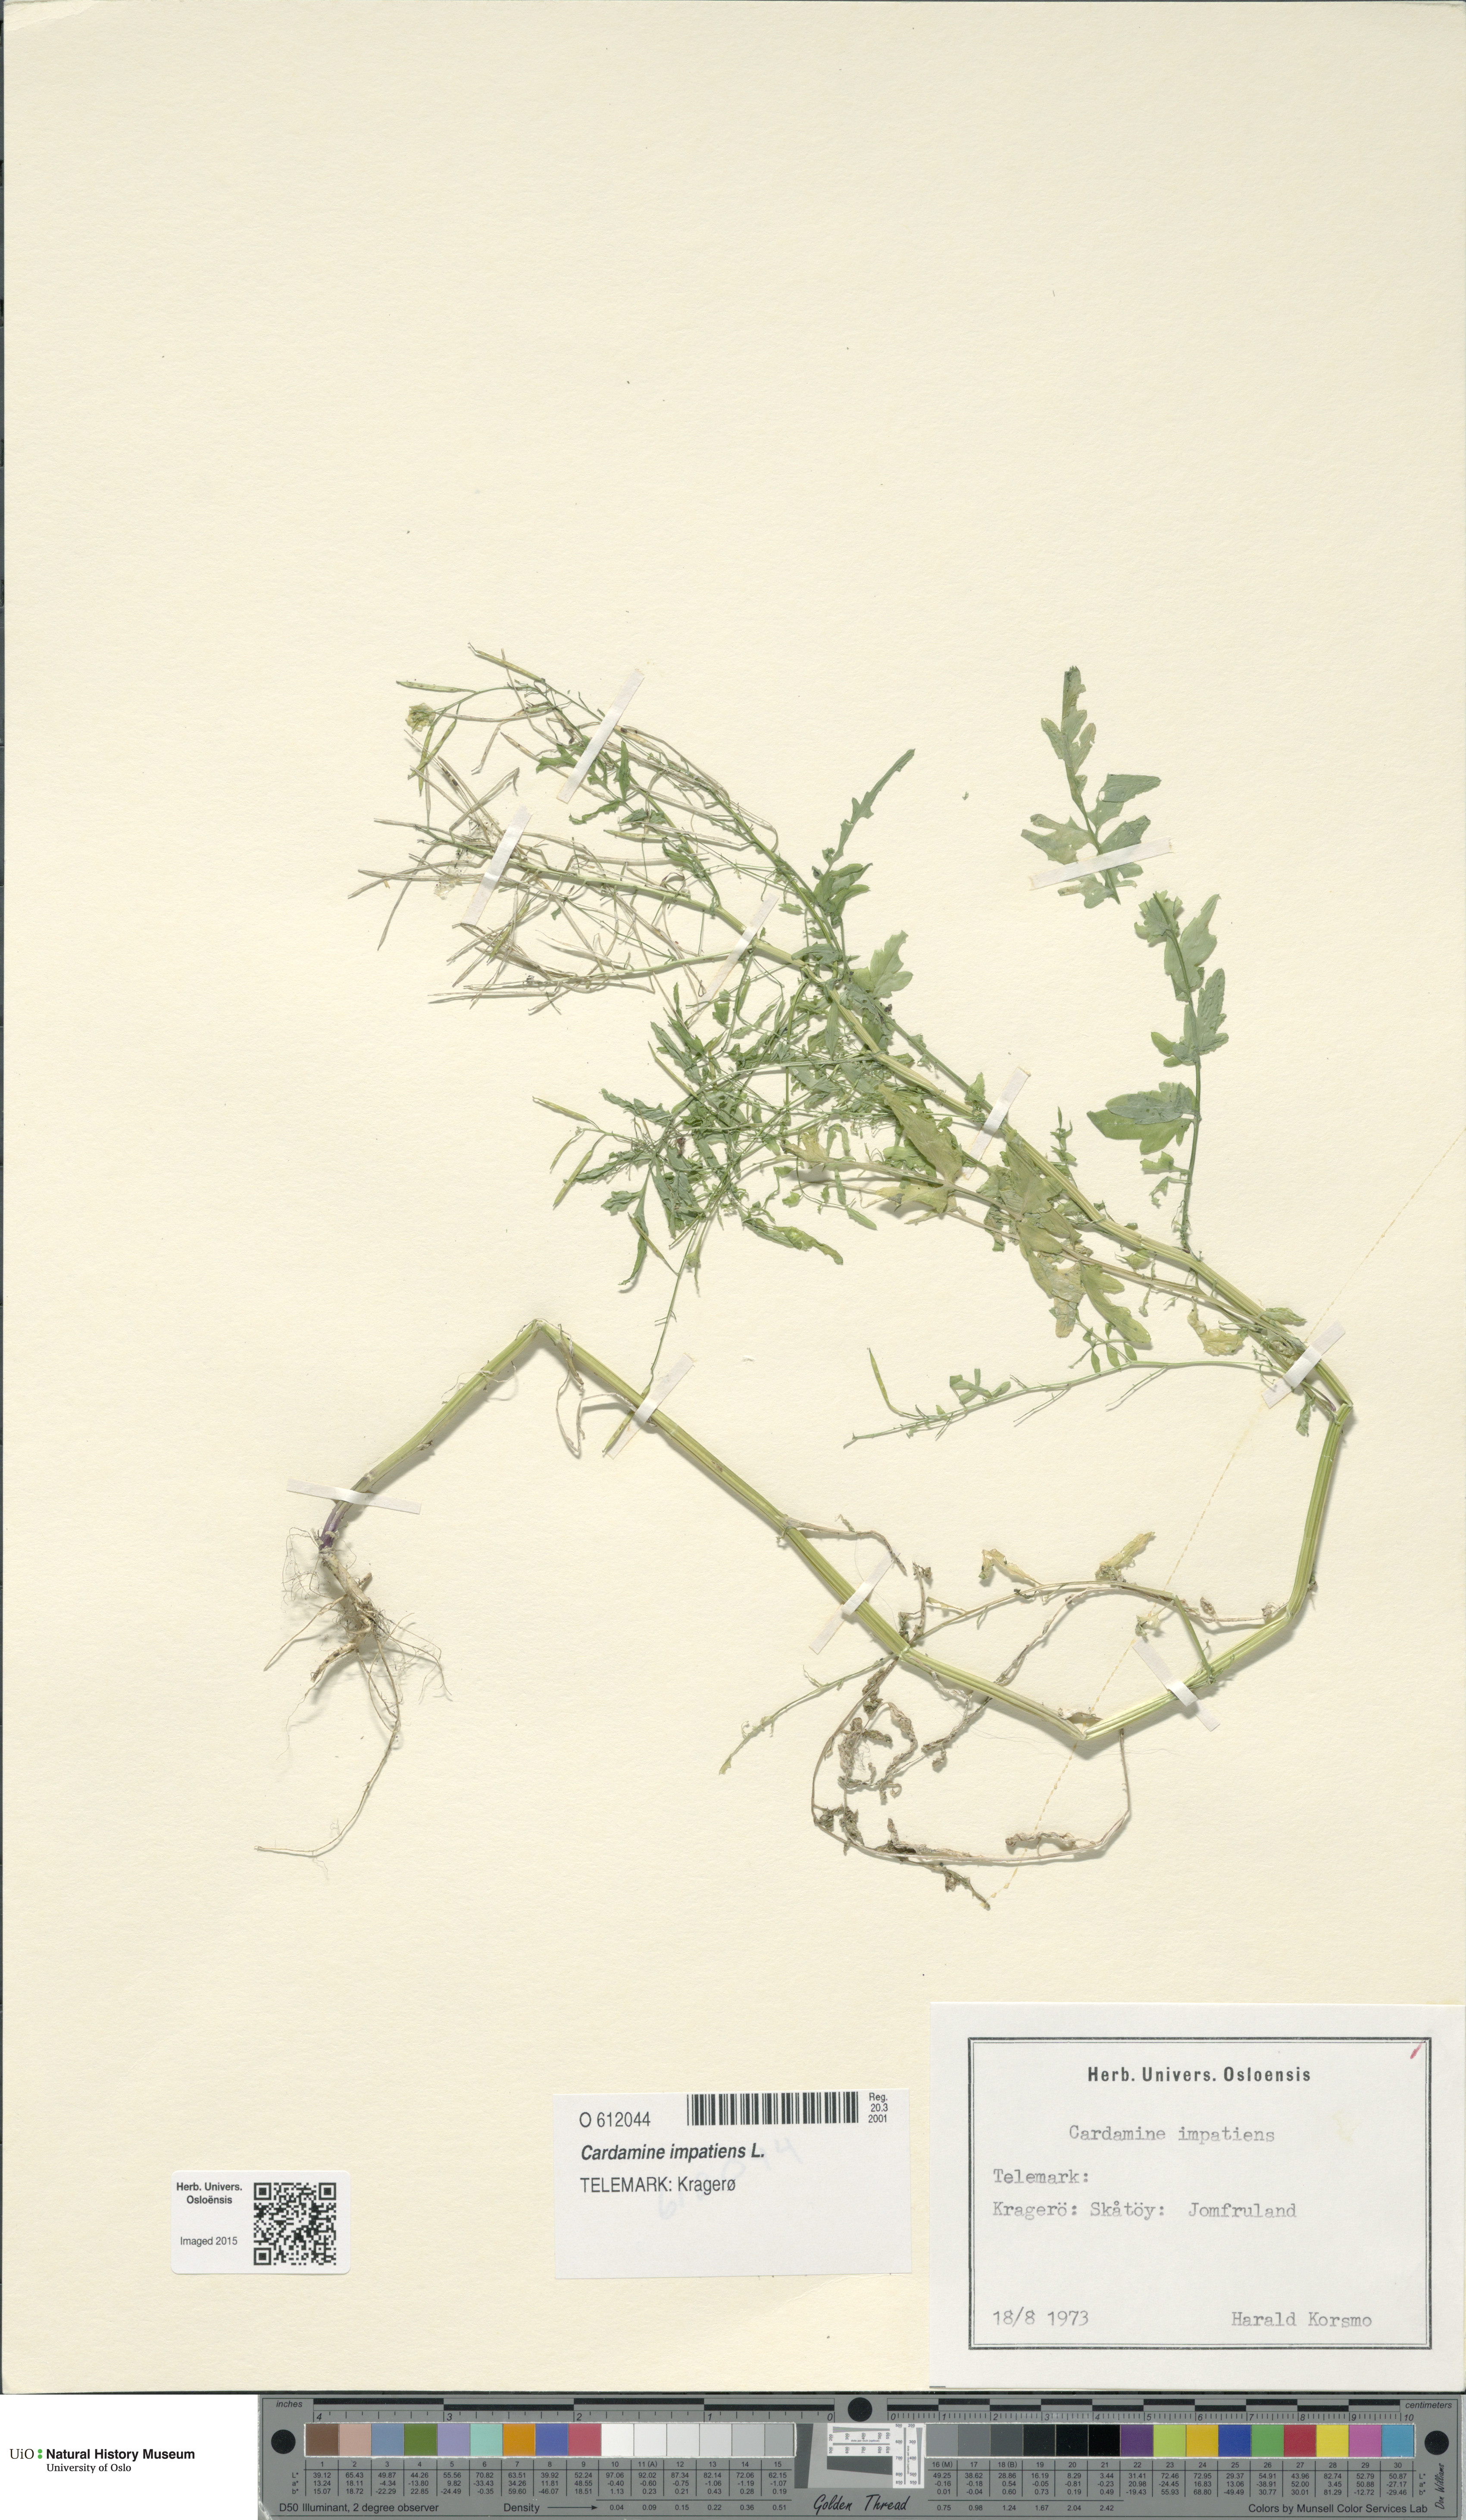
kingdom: Plantae
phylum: Tracheophyta
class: Magnoliopsida
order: Brassicales
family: Brassicaceae
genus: Cardamine
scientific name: Cardamine impatiens
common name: Narrow-leaved bitter-cress
